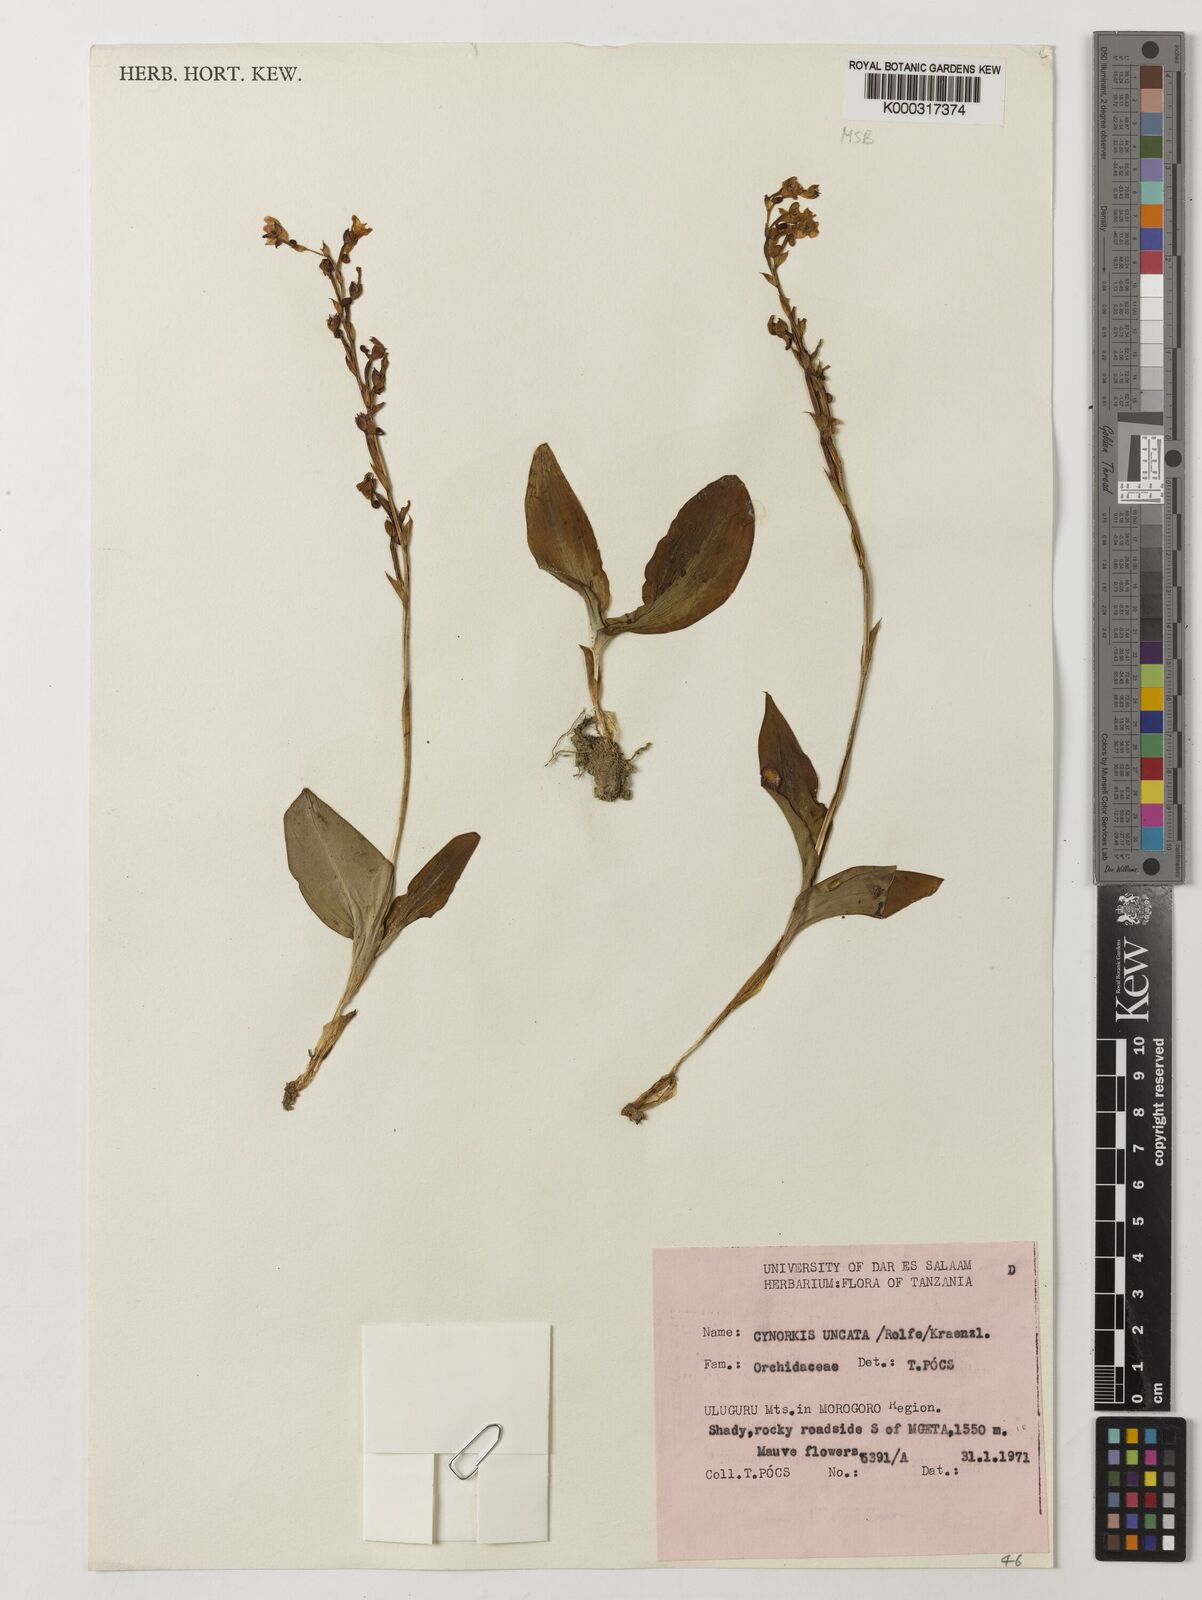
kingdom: Plantae
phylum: Tracheophyta
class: Liliopsida
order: Asparagales
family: Orchidaceae
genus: Cynorkis
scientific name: Cynorkis uncata
